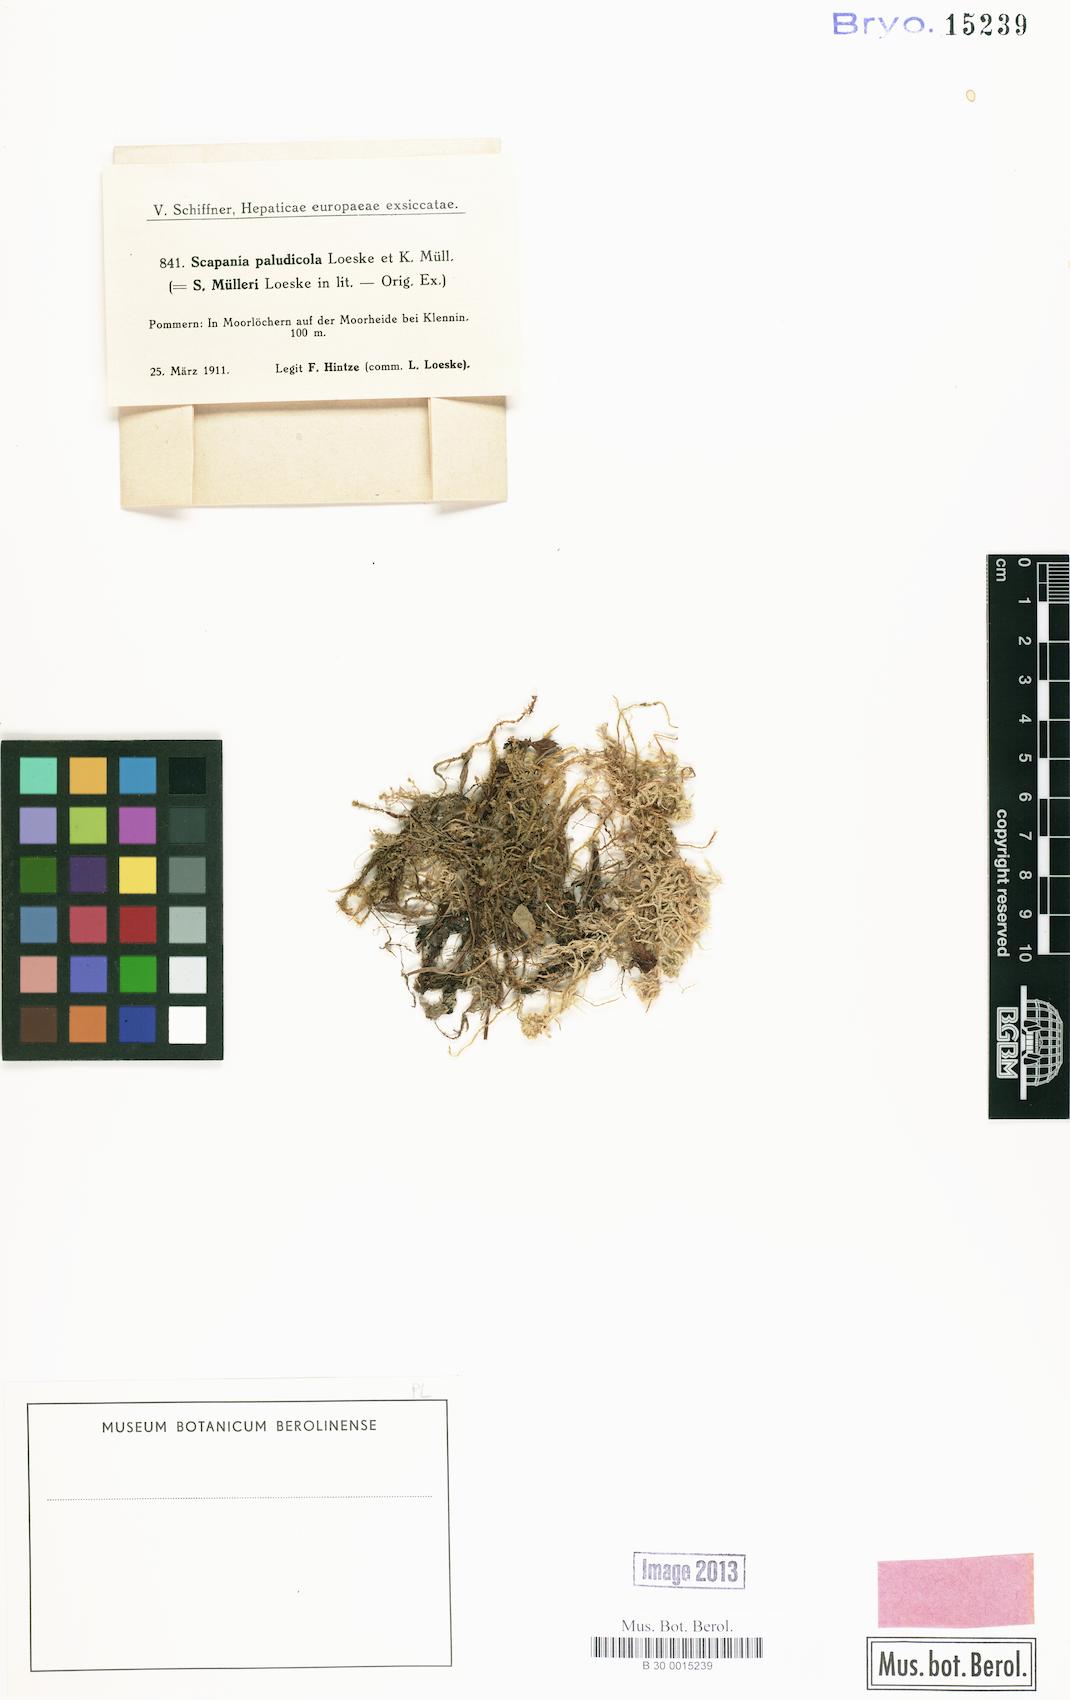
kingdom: Plantae
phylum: Marchantiophyta
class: Jungermanniopsida
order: Jungermanniales
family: Scapaniaceae
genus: Scapania
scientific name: Scapania paludicola
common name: Bog earwort
